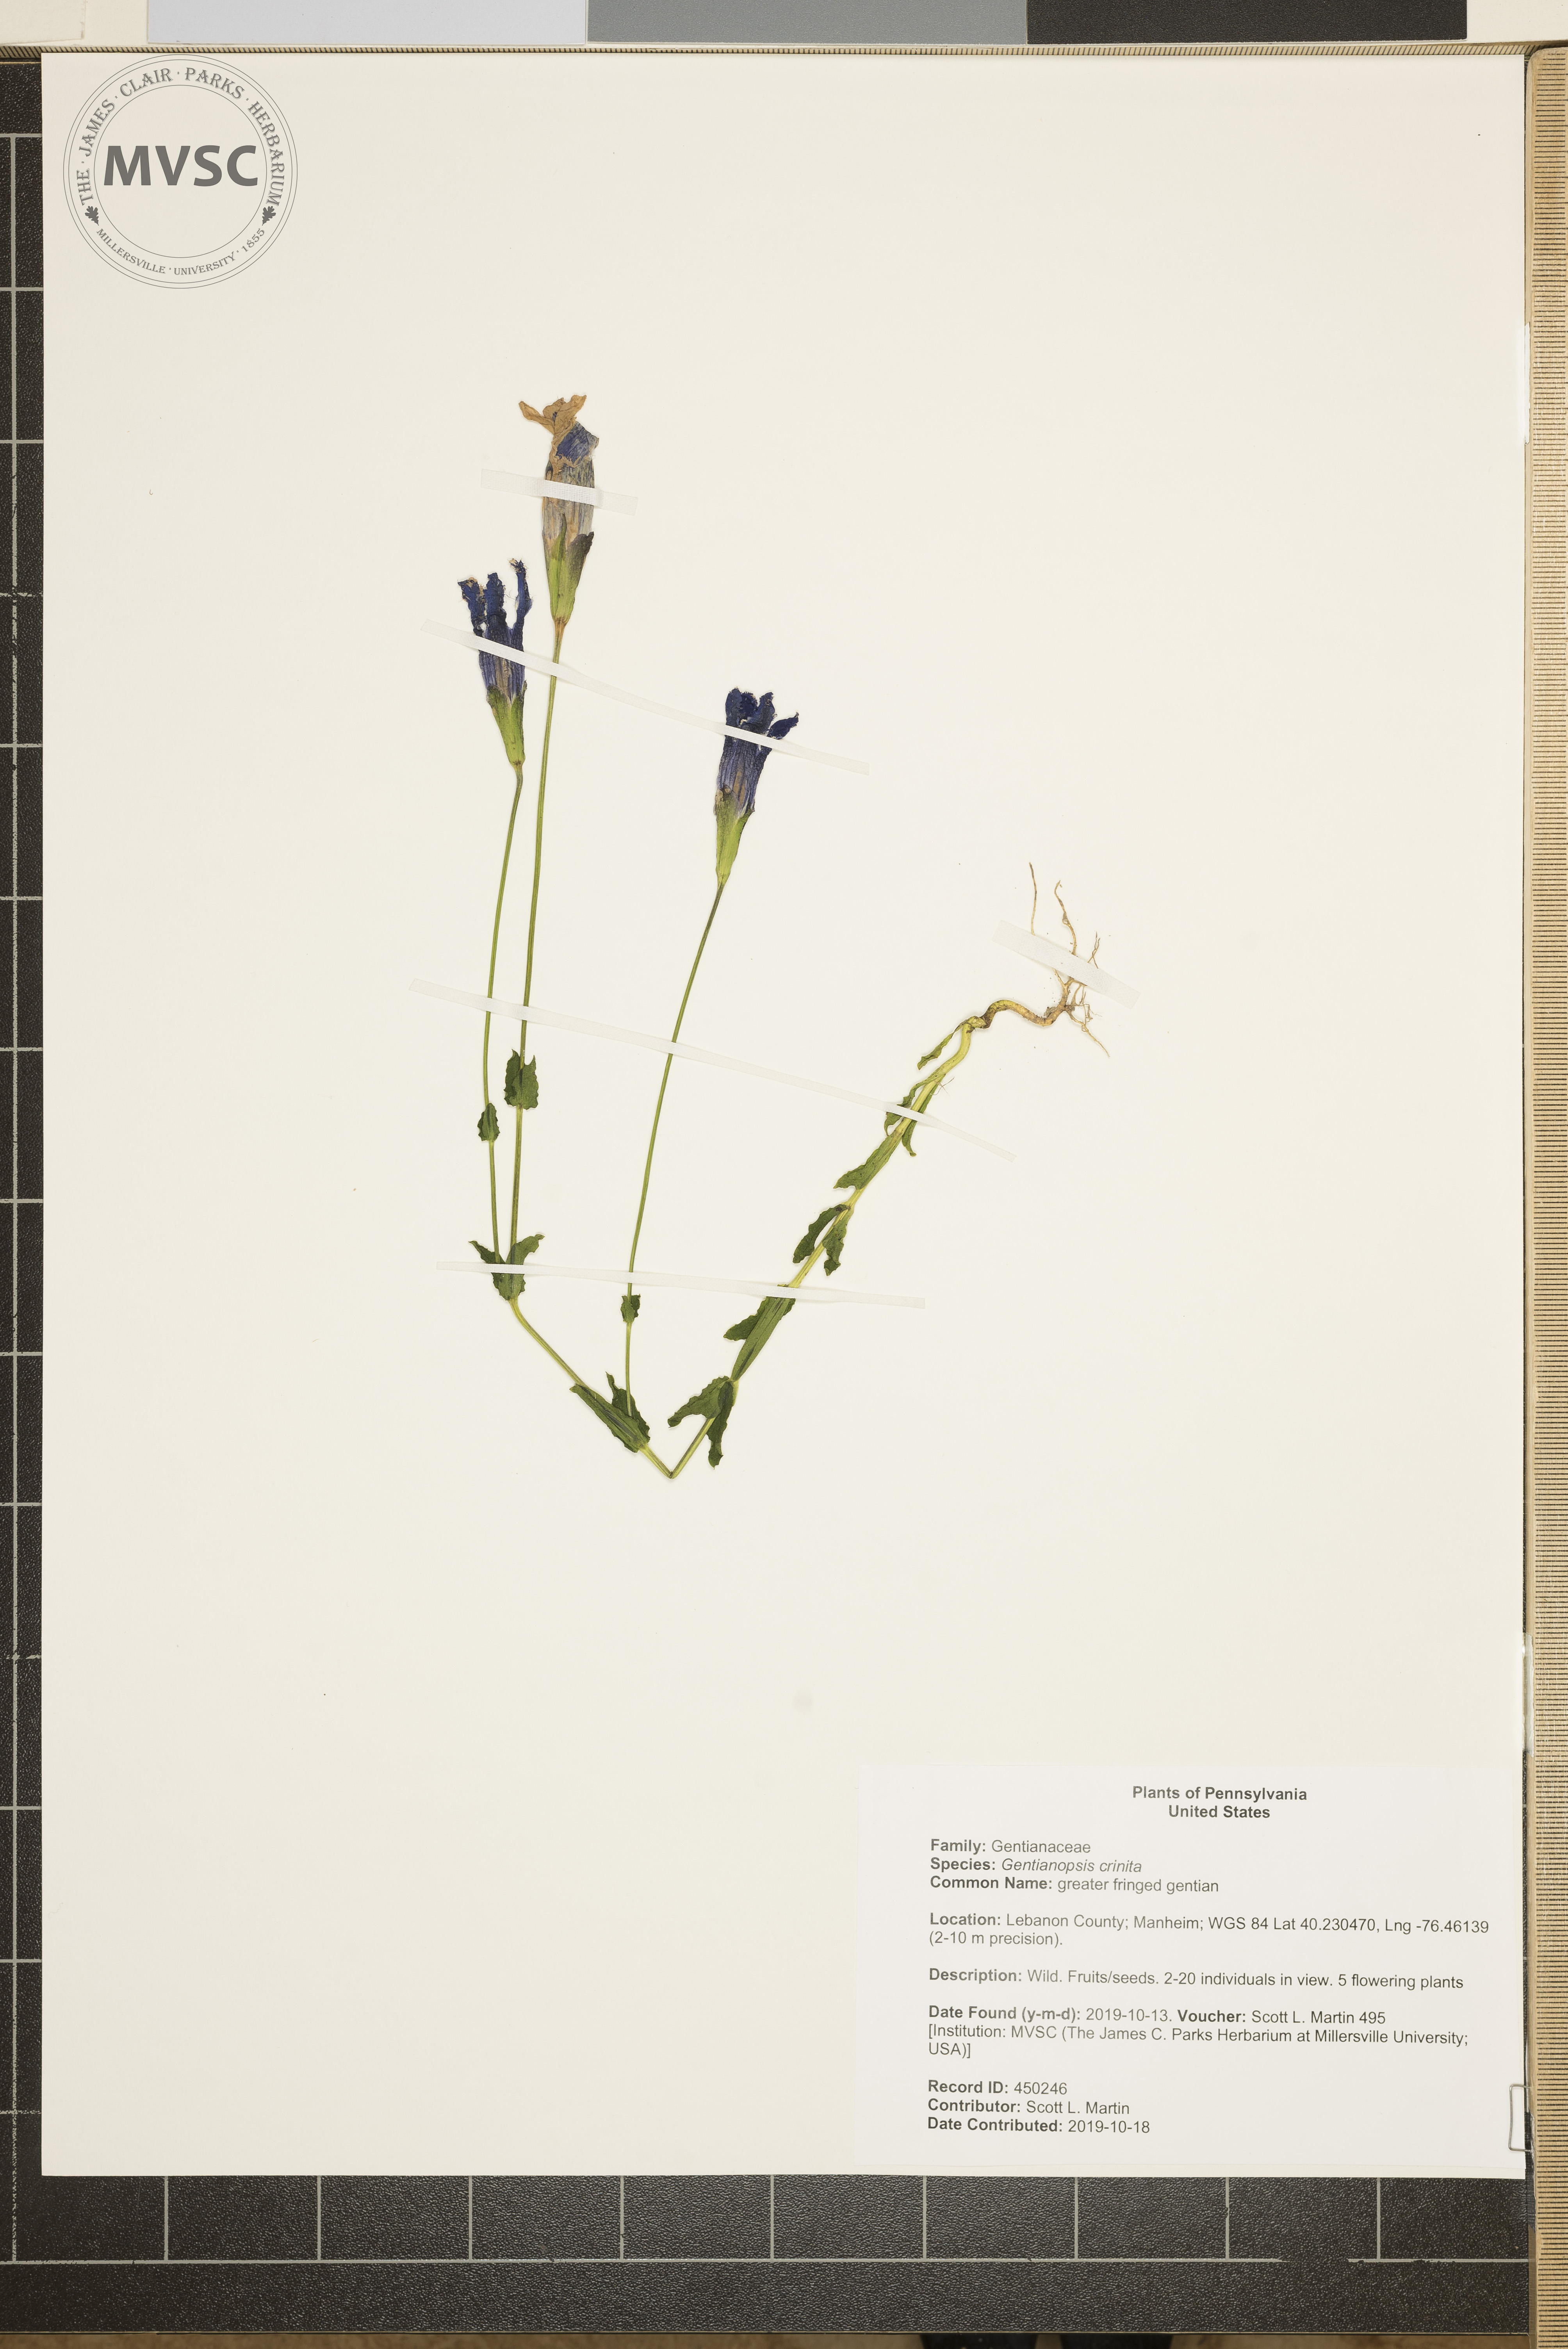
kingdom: Plantae
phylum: Tracheophyta
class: Magnoliopsida
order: Gentianales
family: Gentianaceae
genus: Gentianopsis
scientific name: Gentianopsis crinita
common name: greater fringed gentian
